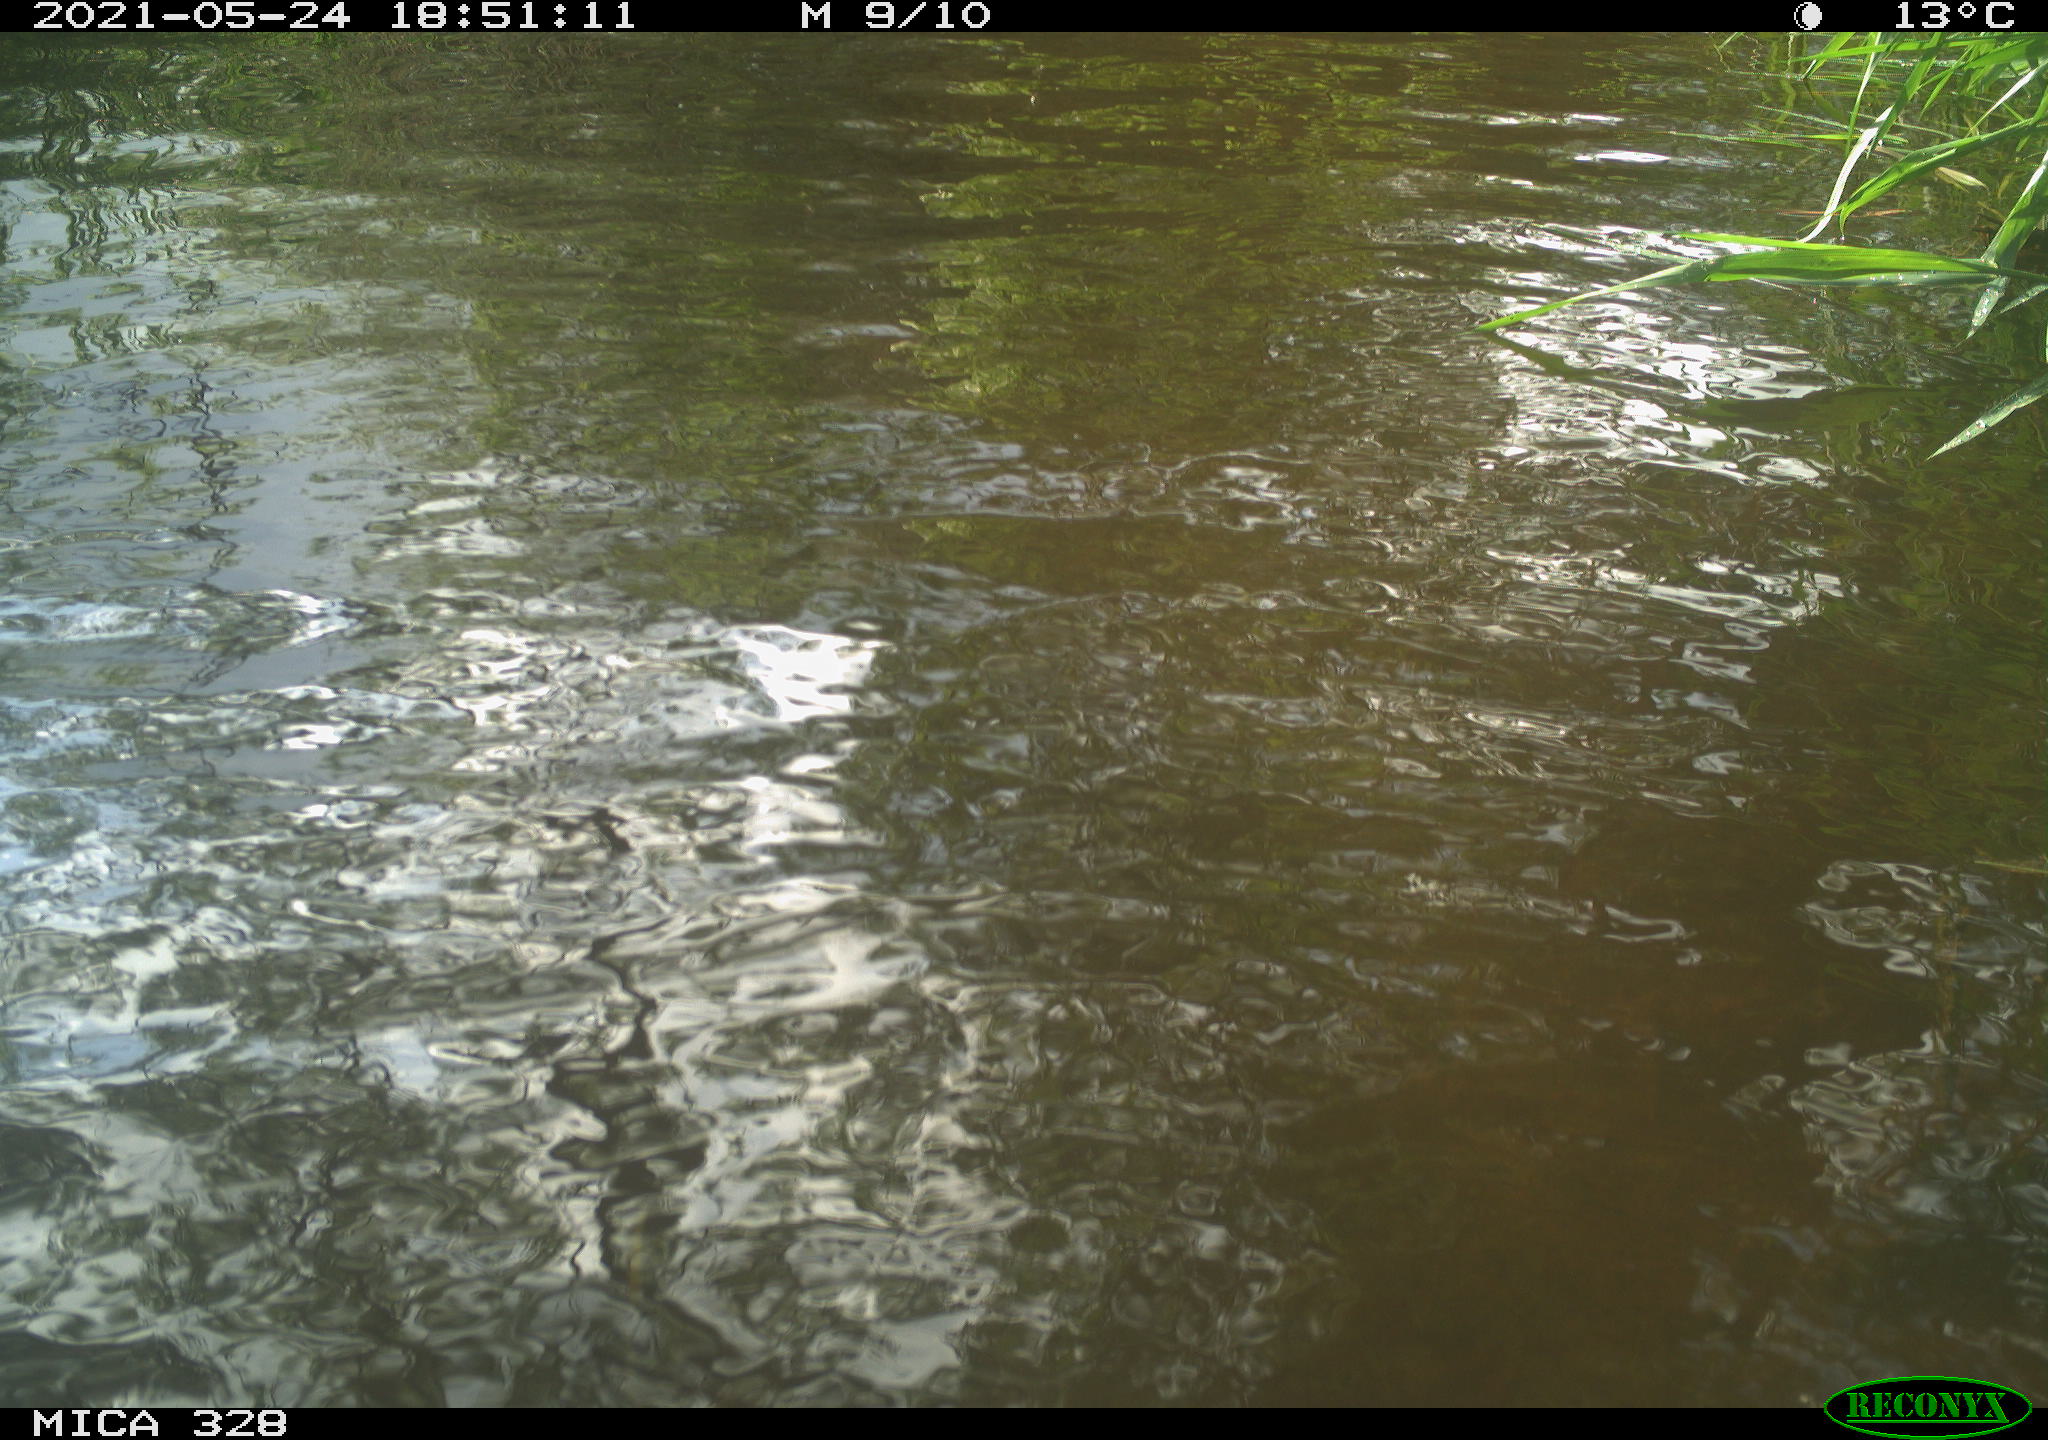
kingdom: Animalia
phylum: Chordata
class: Aves
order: Anseriformes
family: Anatidae
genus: Aix
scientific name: Aix galericulata
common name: Mandarin duck
